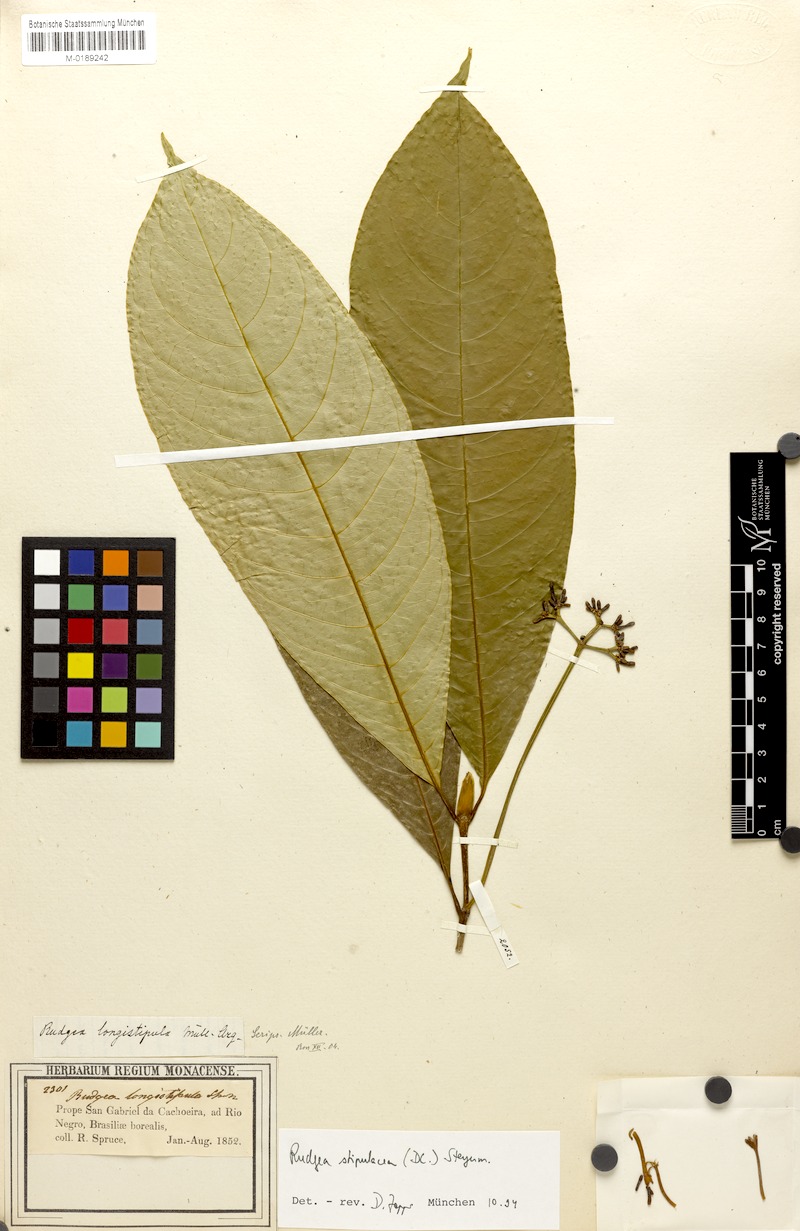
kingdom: Plantae
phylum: Tracheophyta
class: Magnoliopsida
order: Gentianales
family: Rubiaceae
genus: Rudgea
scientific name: Rudgea stipulacea
